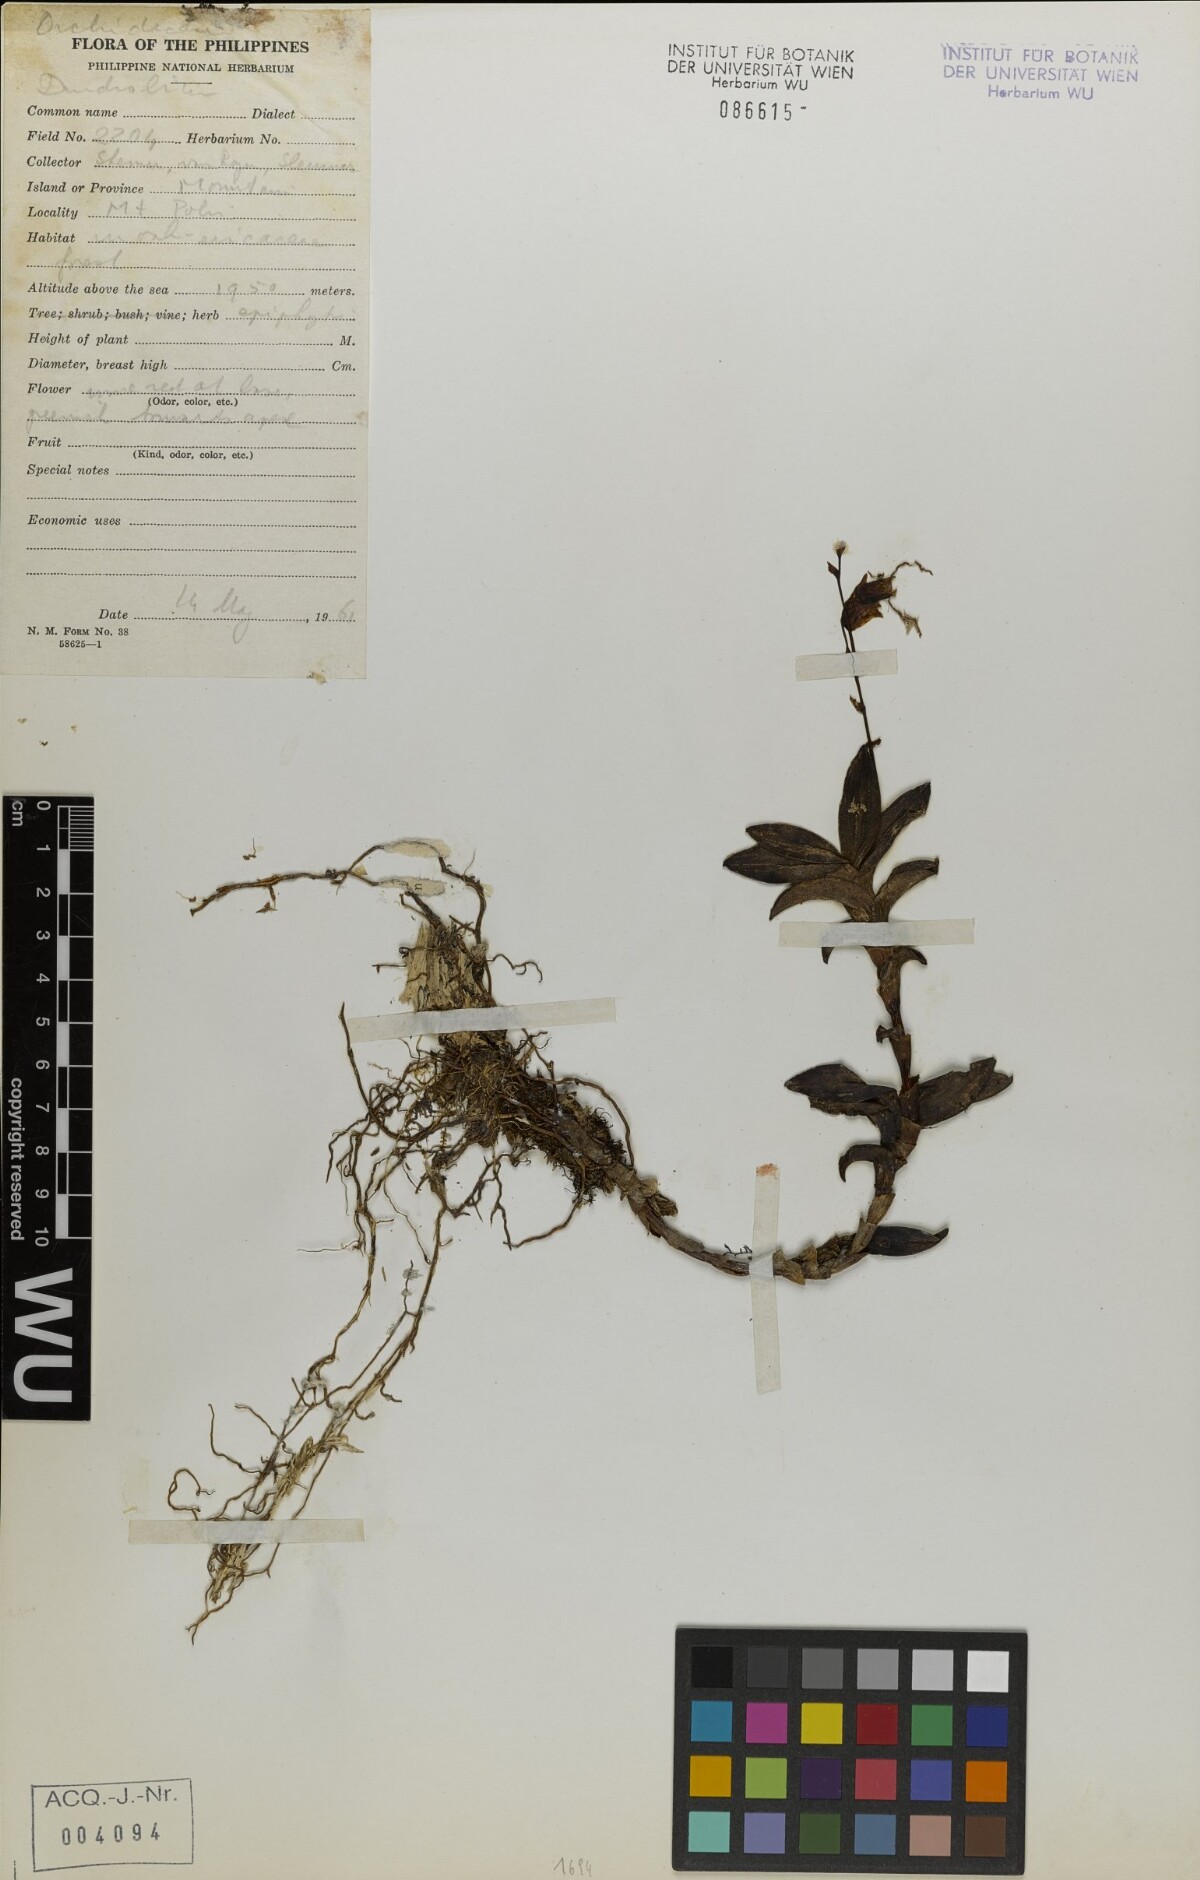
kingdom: Plantae
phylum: Tracheophyta
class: Liliopsida
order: Asparagales
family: Orchidaceae
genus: Dendrobium
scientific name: Dendrobium
